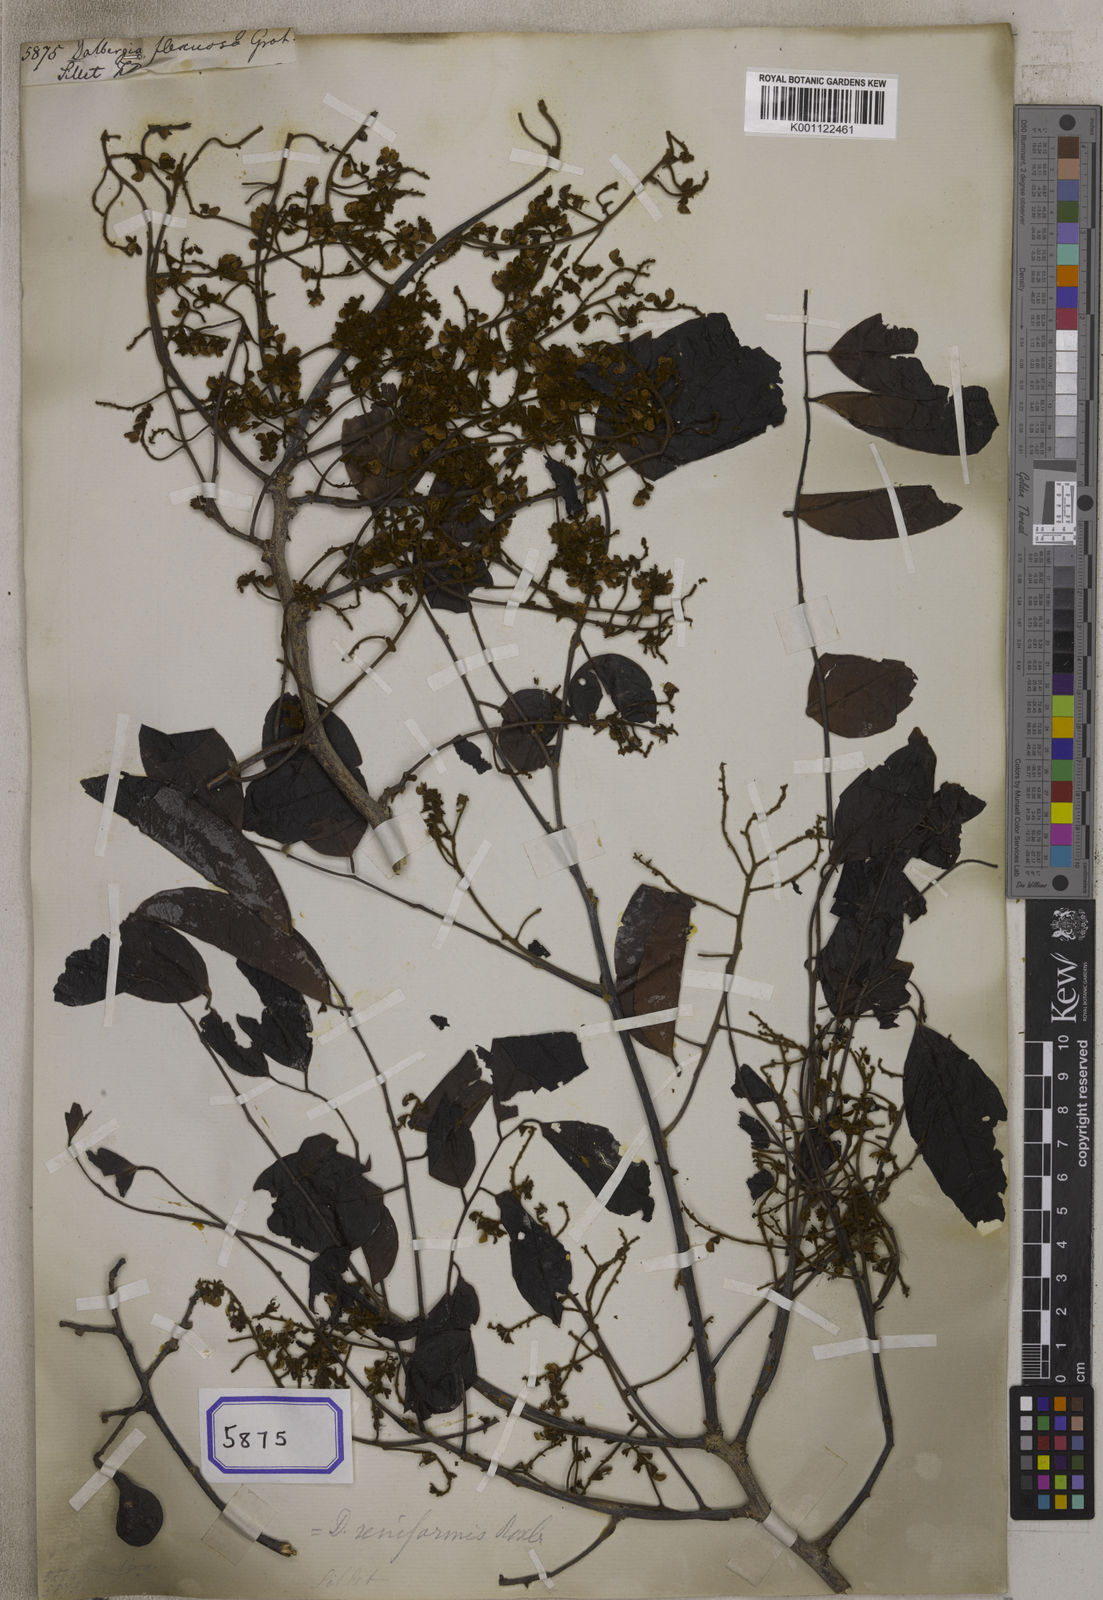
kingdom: Plantae
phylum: Tracheophyta
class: Magnoliopsida
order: Fabales
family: Fabaceae
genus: Dalbergia
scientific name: Dalbergia reniformis
